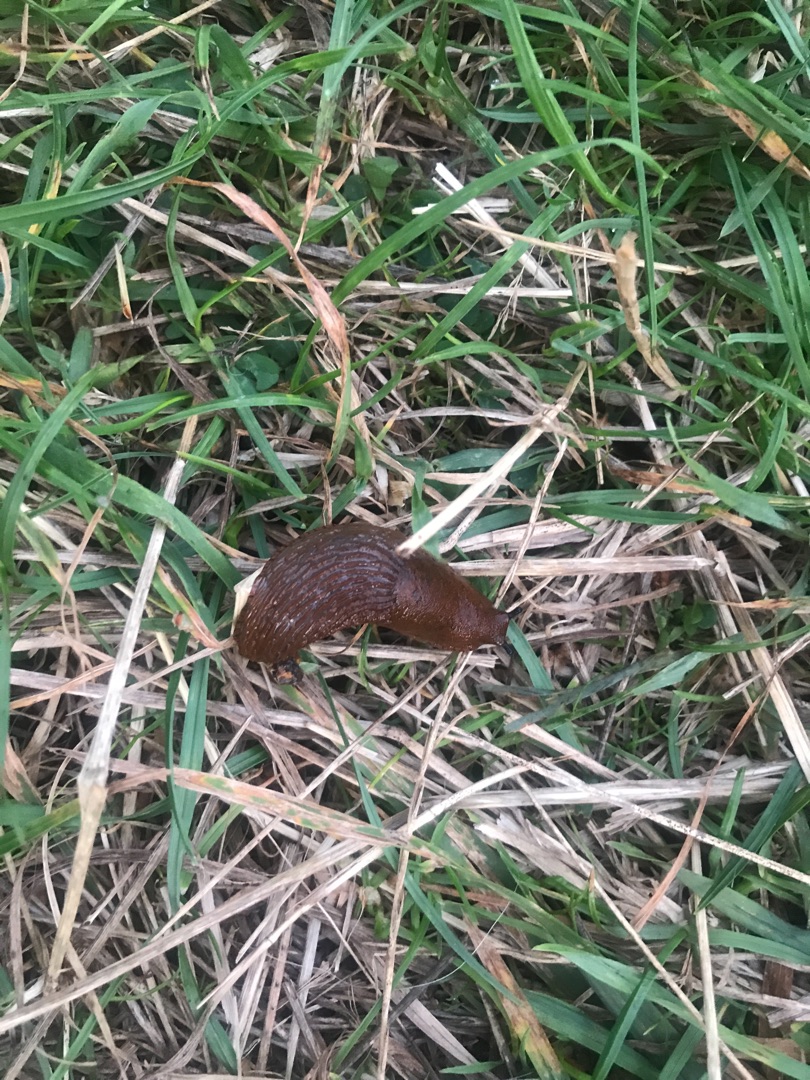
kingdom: Animalia
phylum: Mollusca
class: Gastropoda
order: Stylommatophora
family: Arionidae
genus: Arion
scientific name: Arion vulgaris
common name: Iberisk skovsnegl
